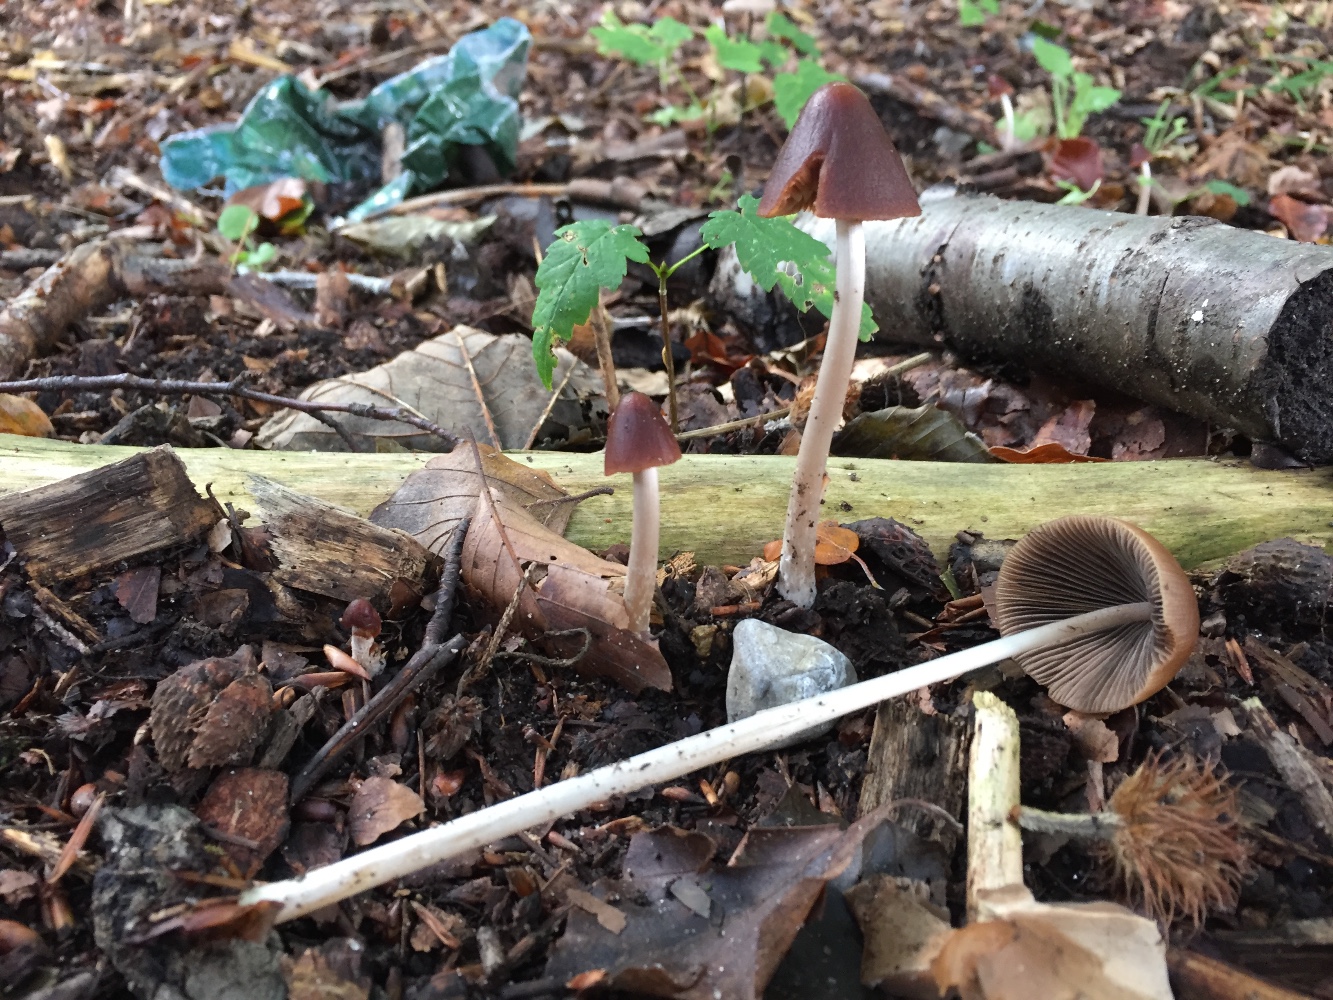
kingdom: Fungi
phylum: Basidiomycota
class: Agaricomycetes
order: Agaricales
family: Psathyrellaceae
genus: Parasola
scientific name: Parasola conopilea
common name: kegle-hjulhat
